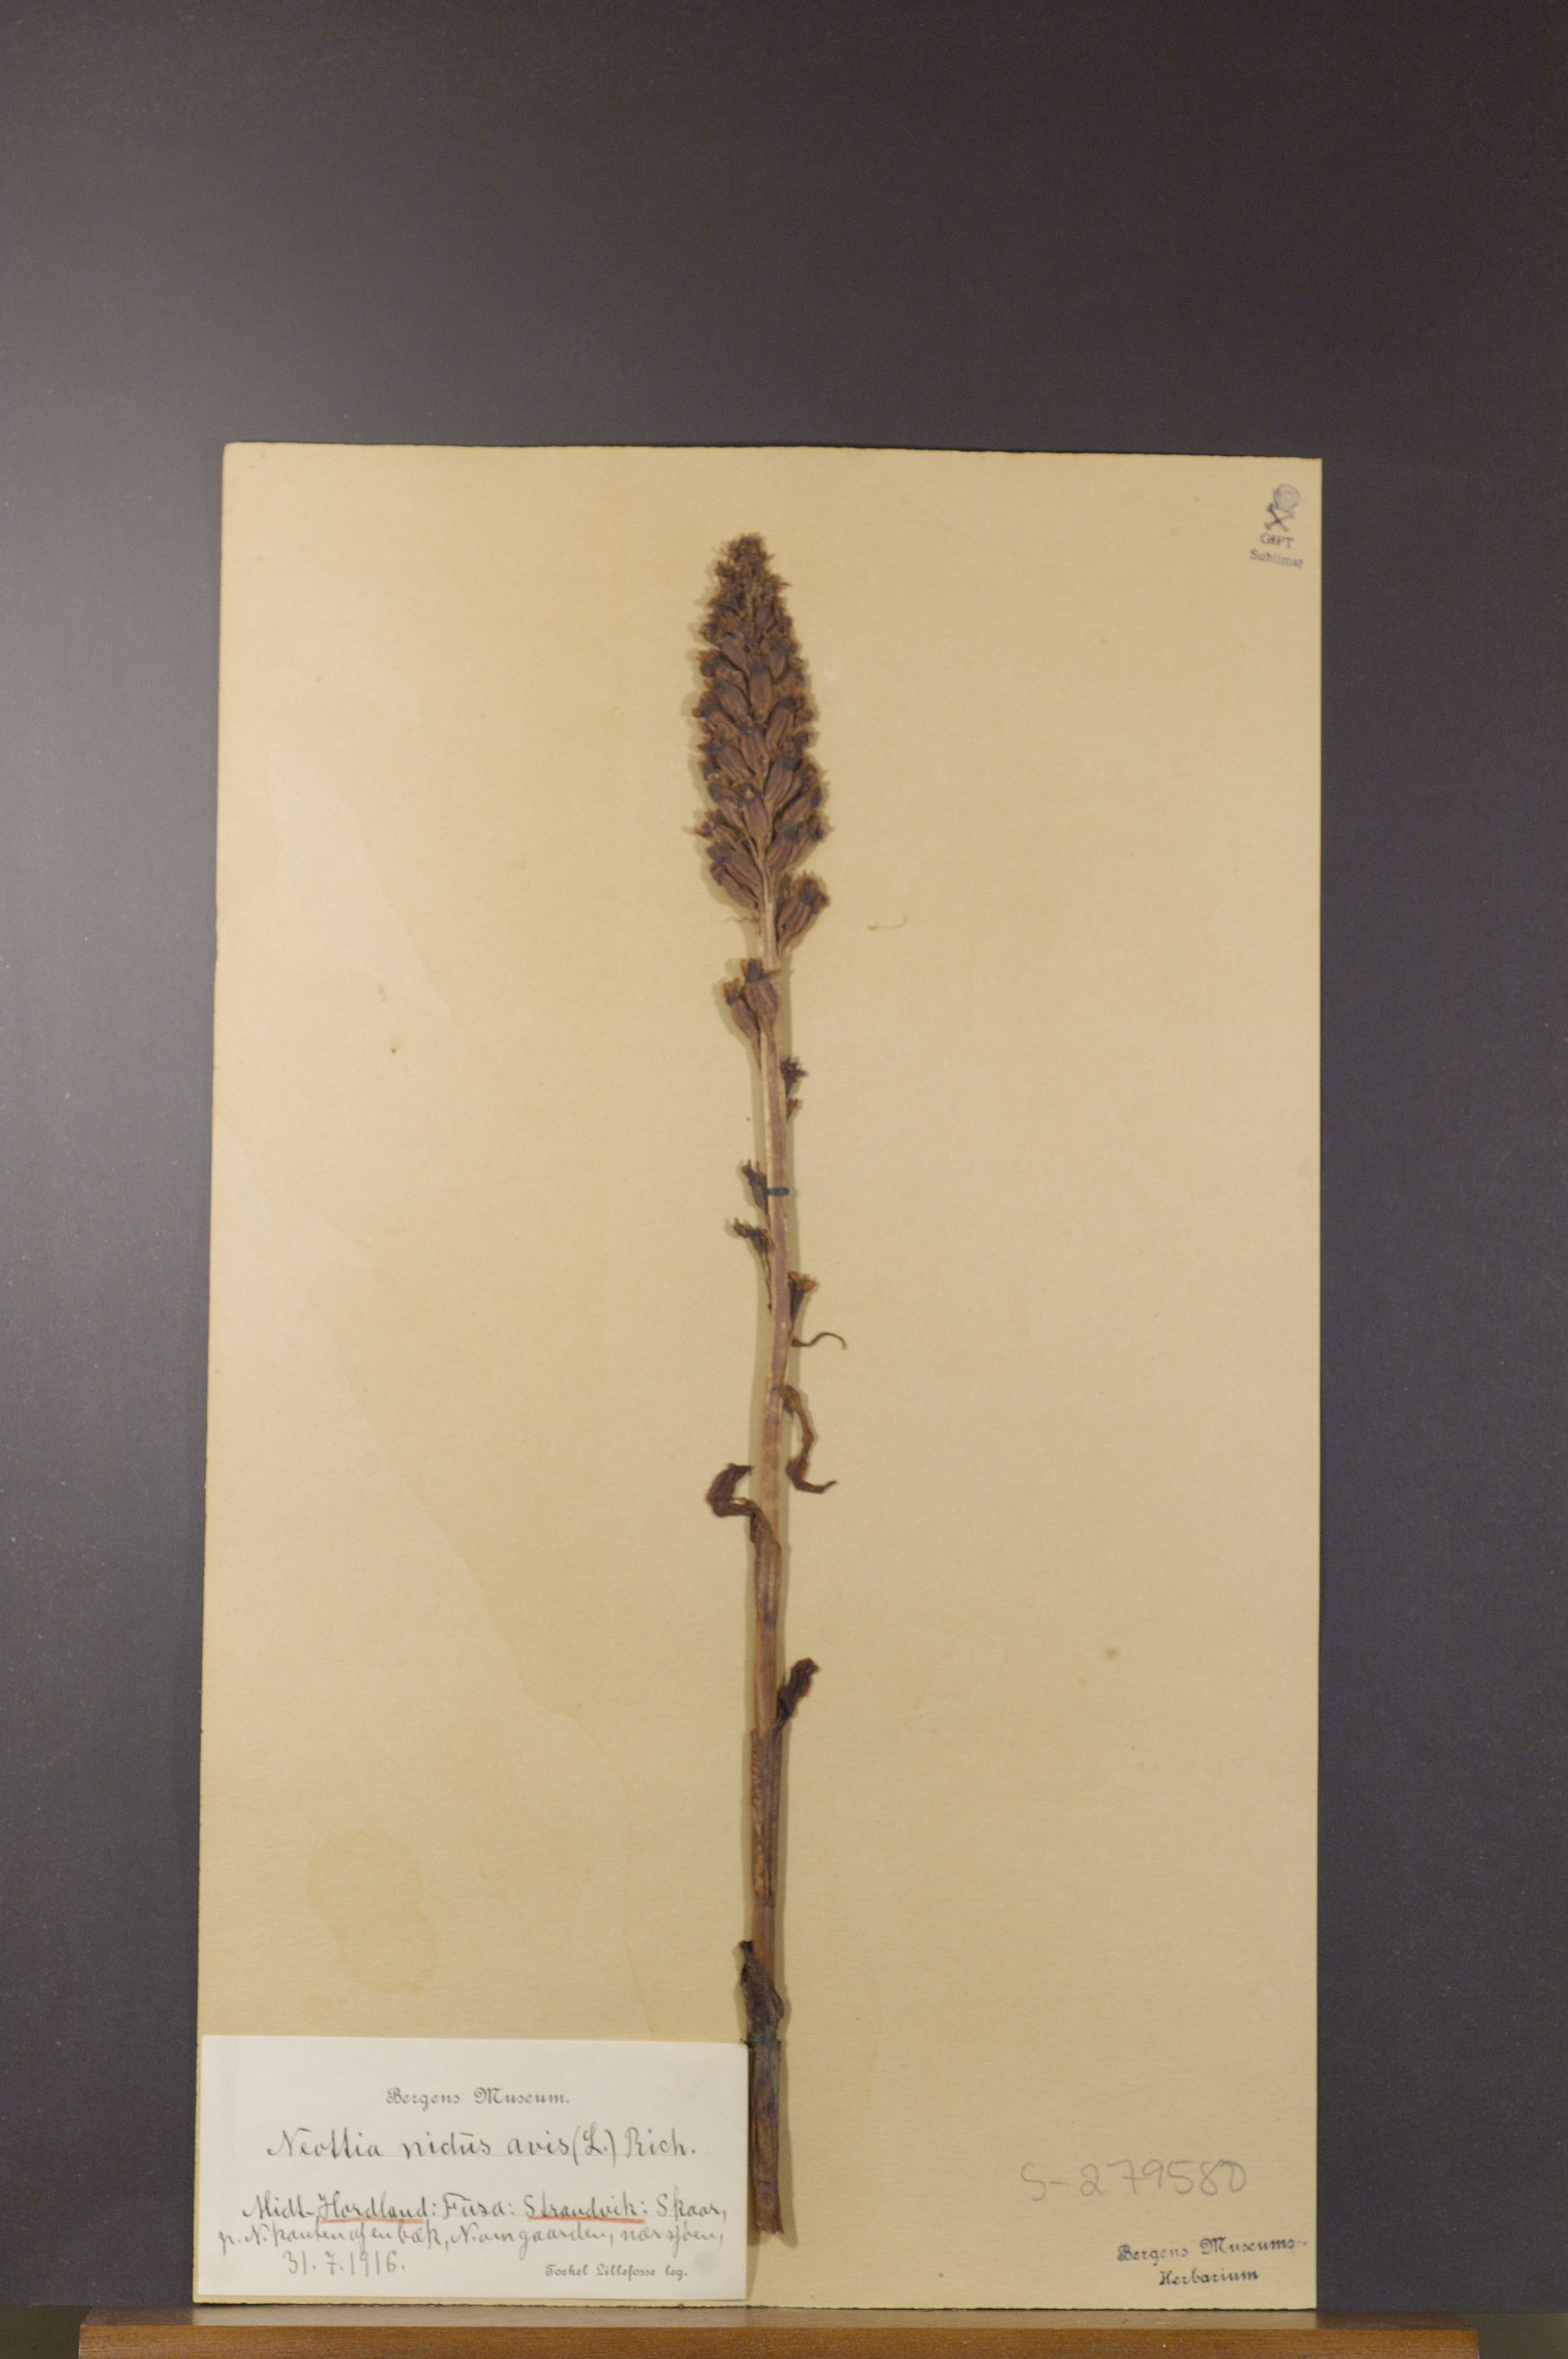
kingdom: Plantae
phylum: Tracheophyta
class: Liliopsida
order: Asparagales
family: Orchidaceae
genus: Neottia
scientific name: Neottia nidus-avis
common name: Bird's-nest orchid
